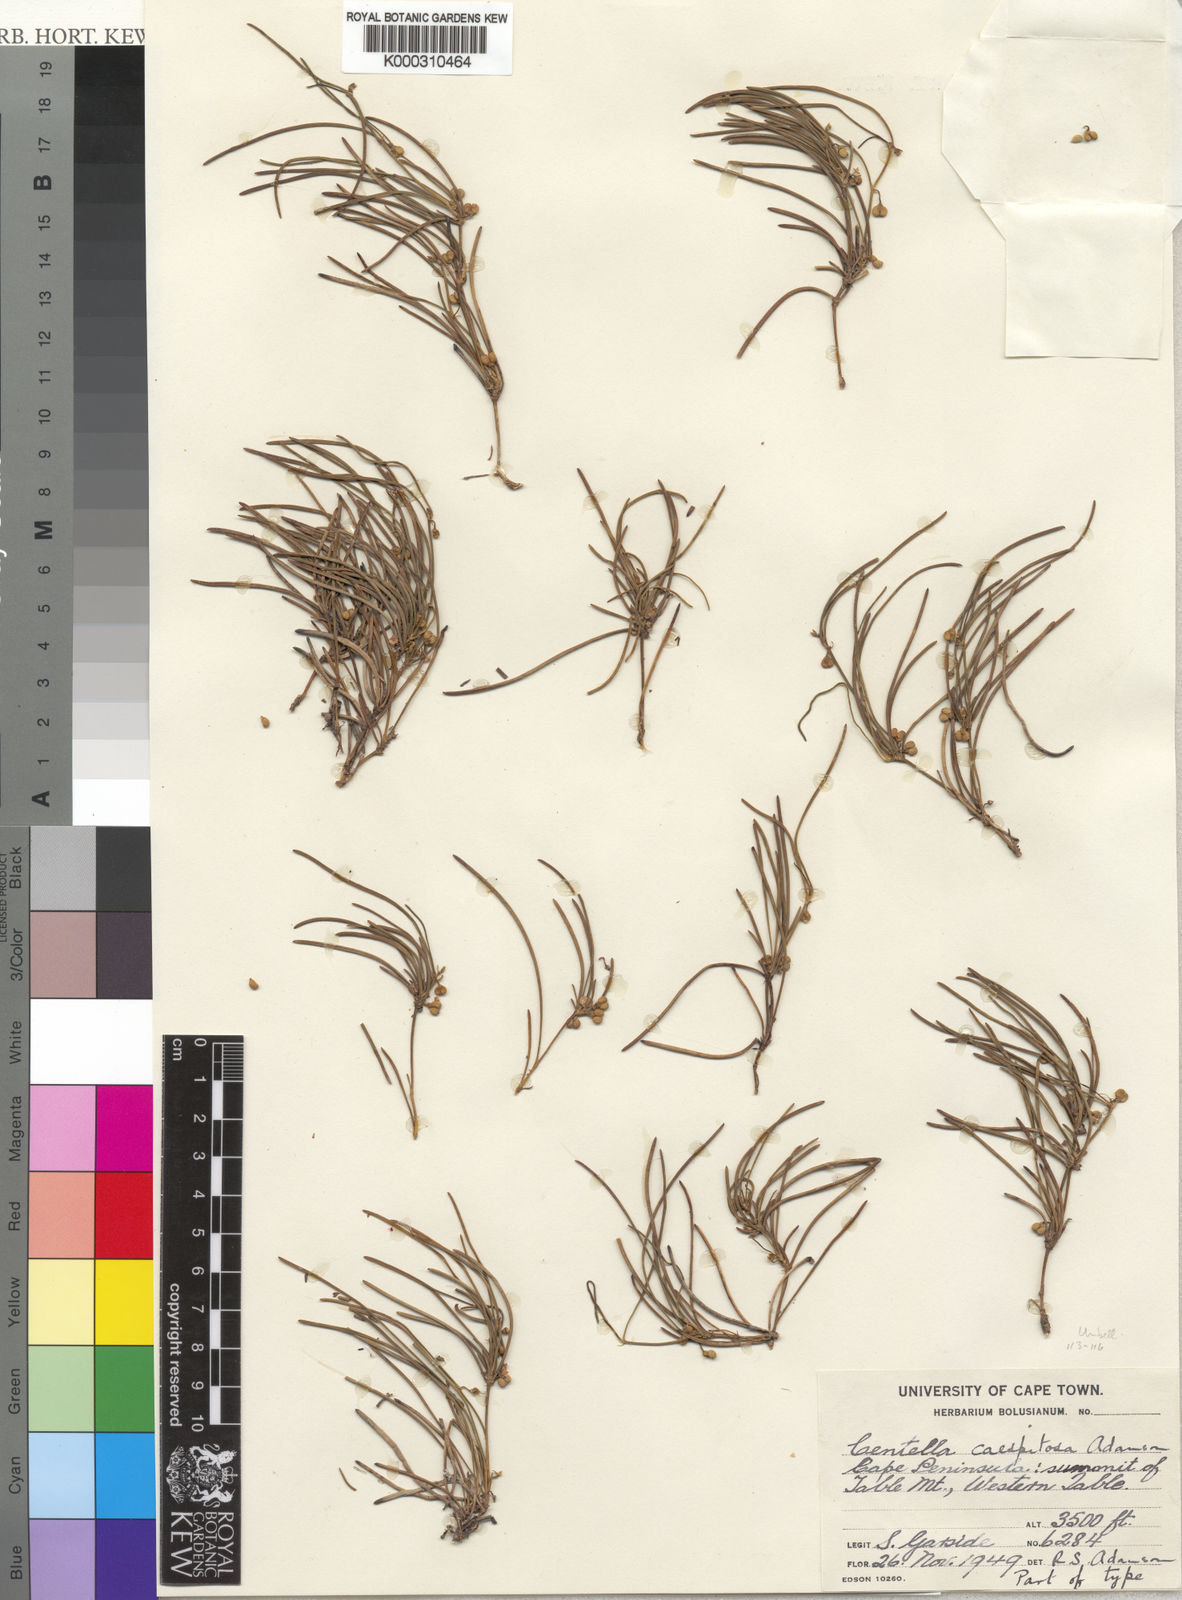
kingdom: Plantae
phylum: Tracheophyta
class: Magnoliopsida
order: Apiales
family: Apiaceae
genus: Centella
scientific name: Centella caespitosa
